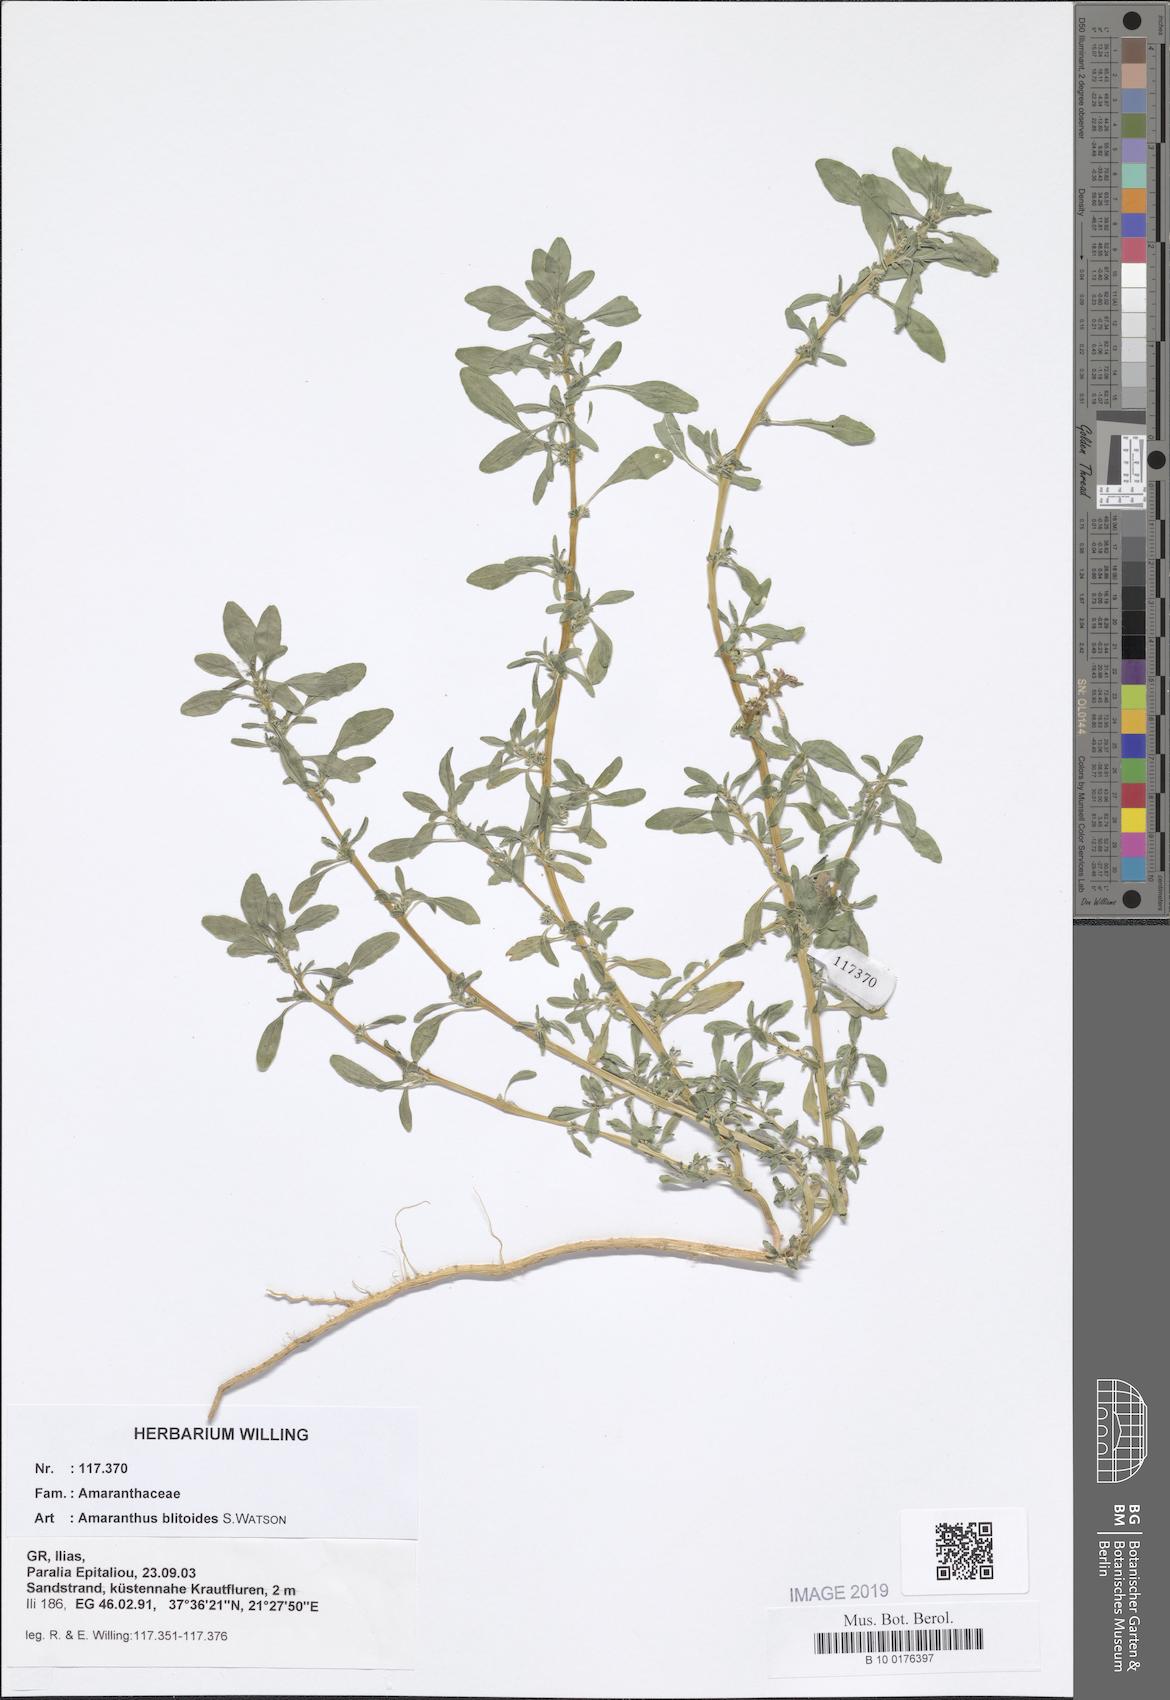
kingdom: Plantae
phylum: Tracheophyta
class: Magnoliopsida
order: Caryophyllales
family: Amaranthaceae
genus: Amaranthus
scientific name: Amaranthus blitoides
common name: Prostrate pigweed
